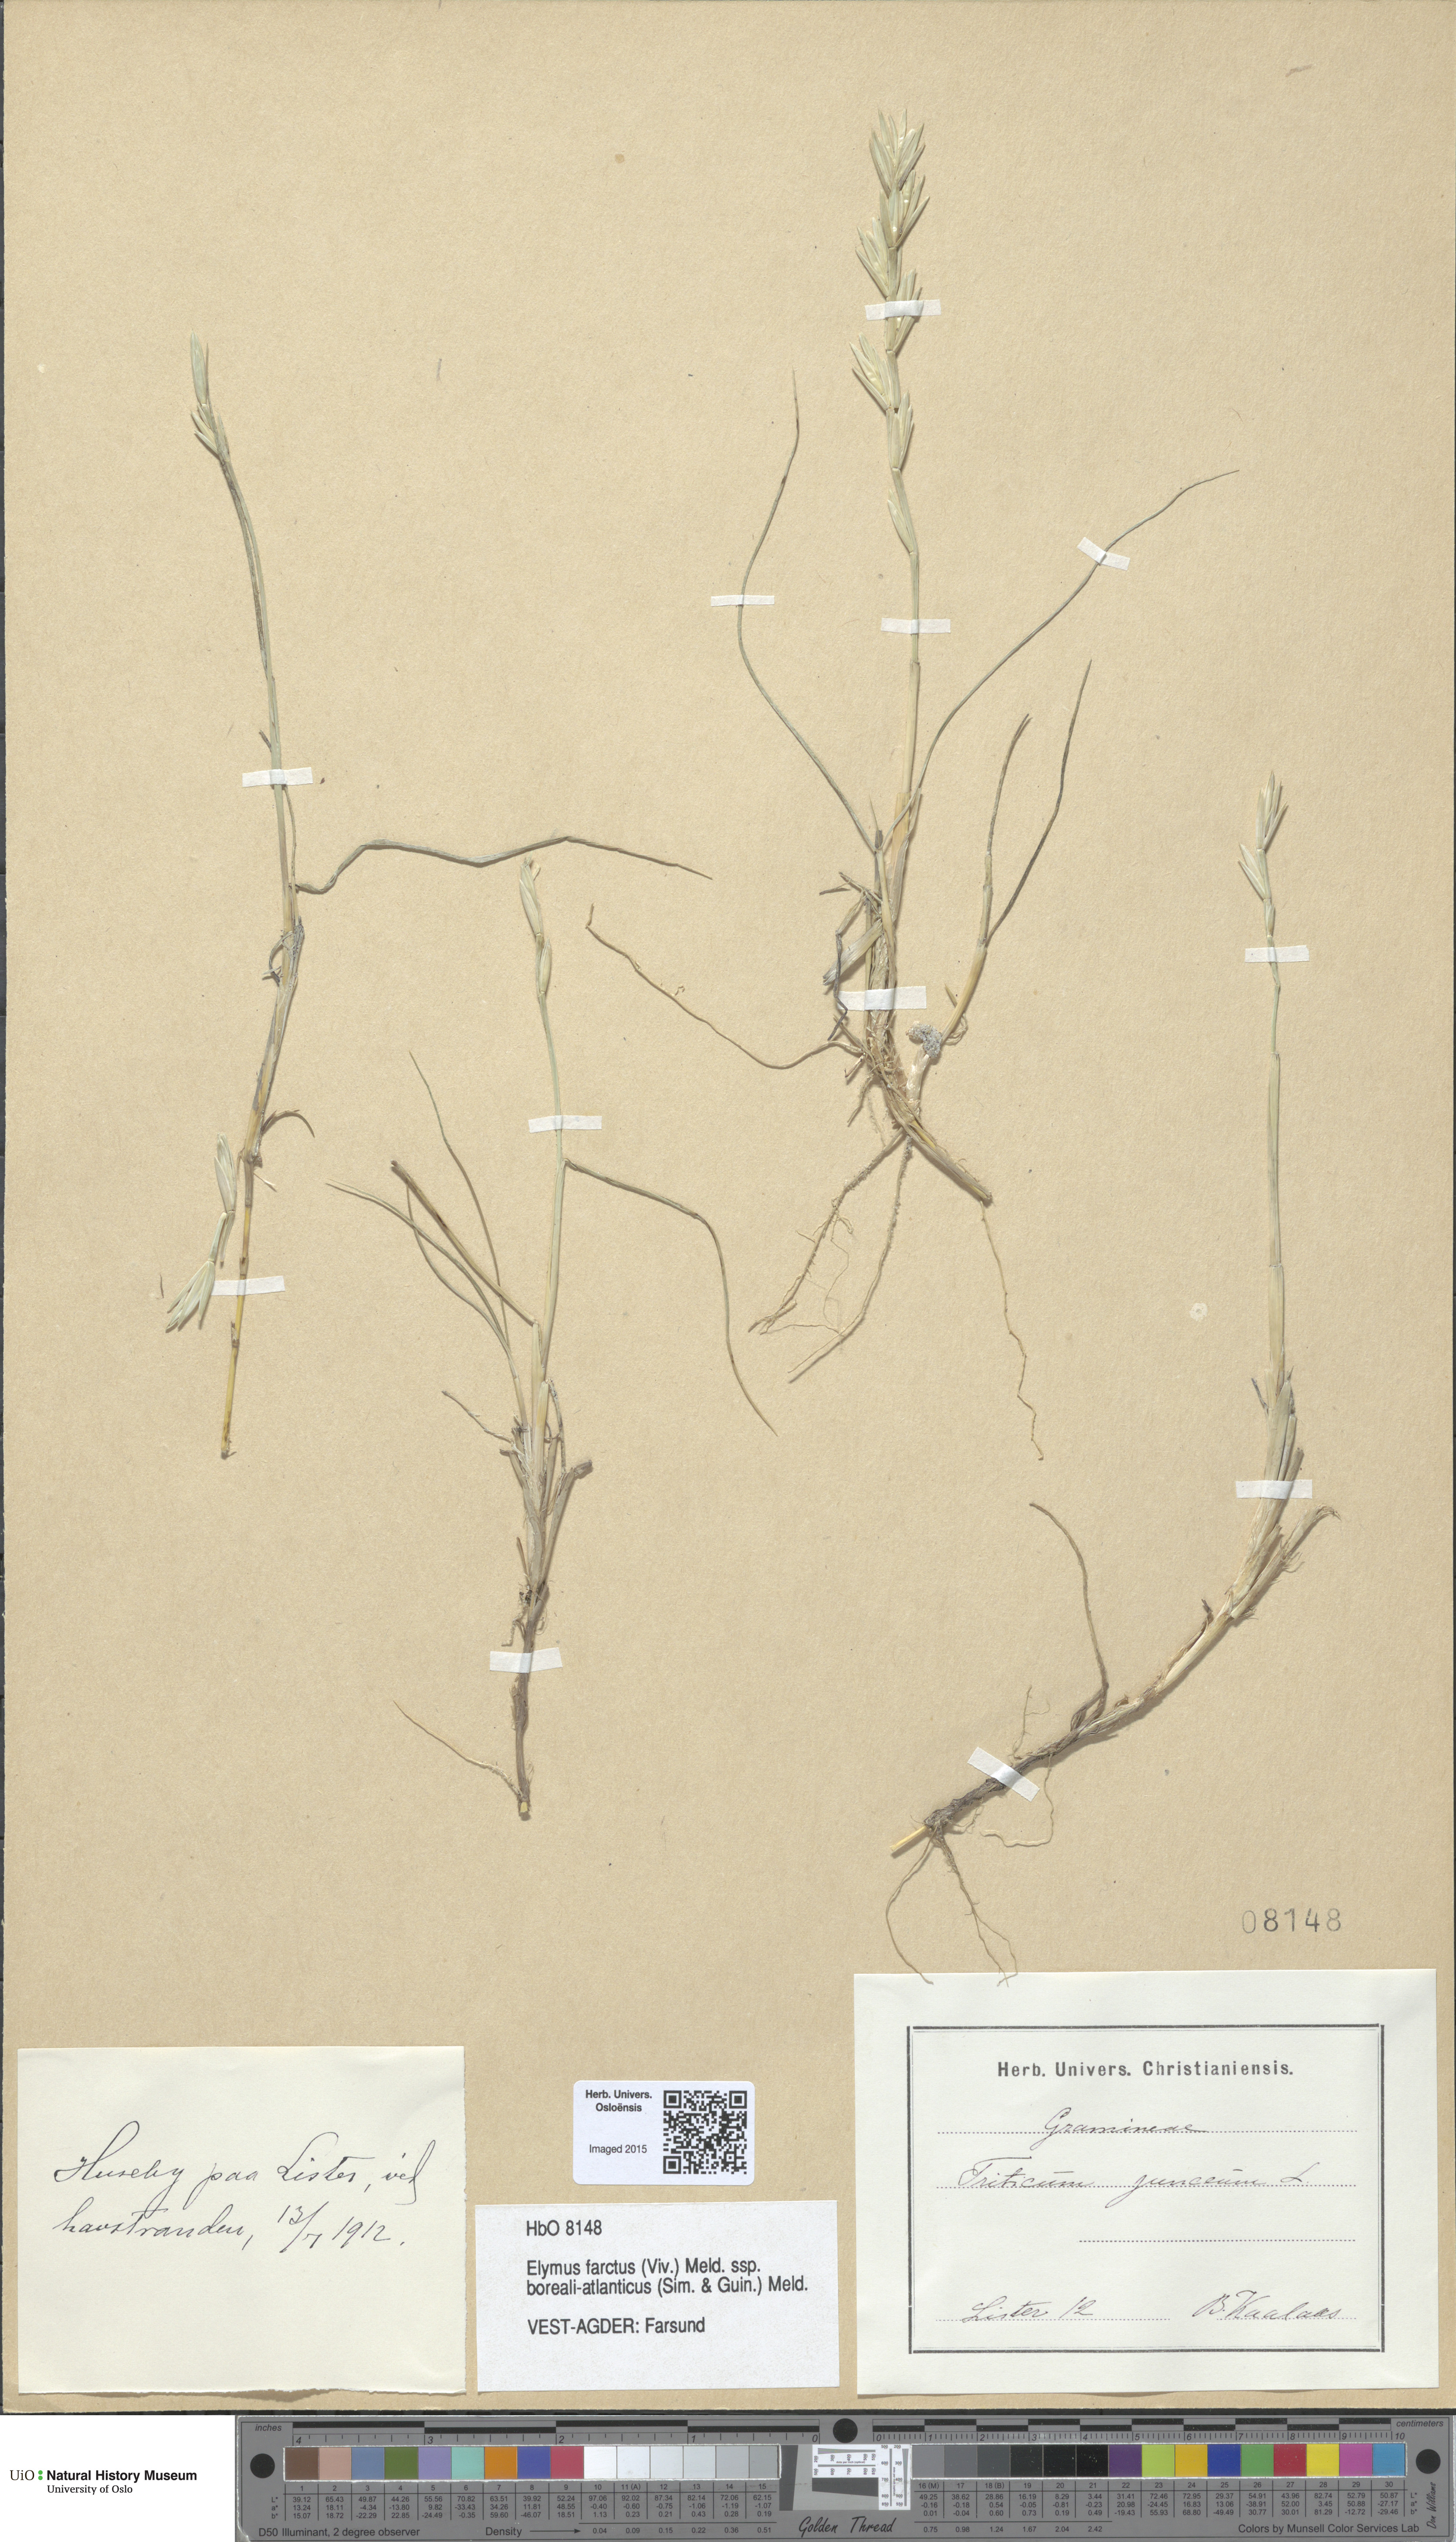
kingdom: Plantae
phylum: Tracheophyta
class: Liliopsida
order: Poales
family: Poaceae
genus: Thinopyrum
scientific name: Thinopyrum junceiforme
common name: Sea couch
